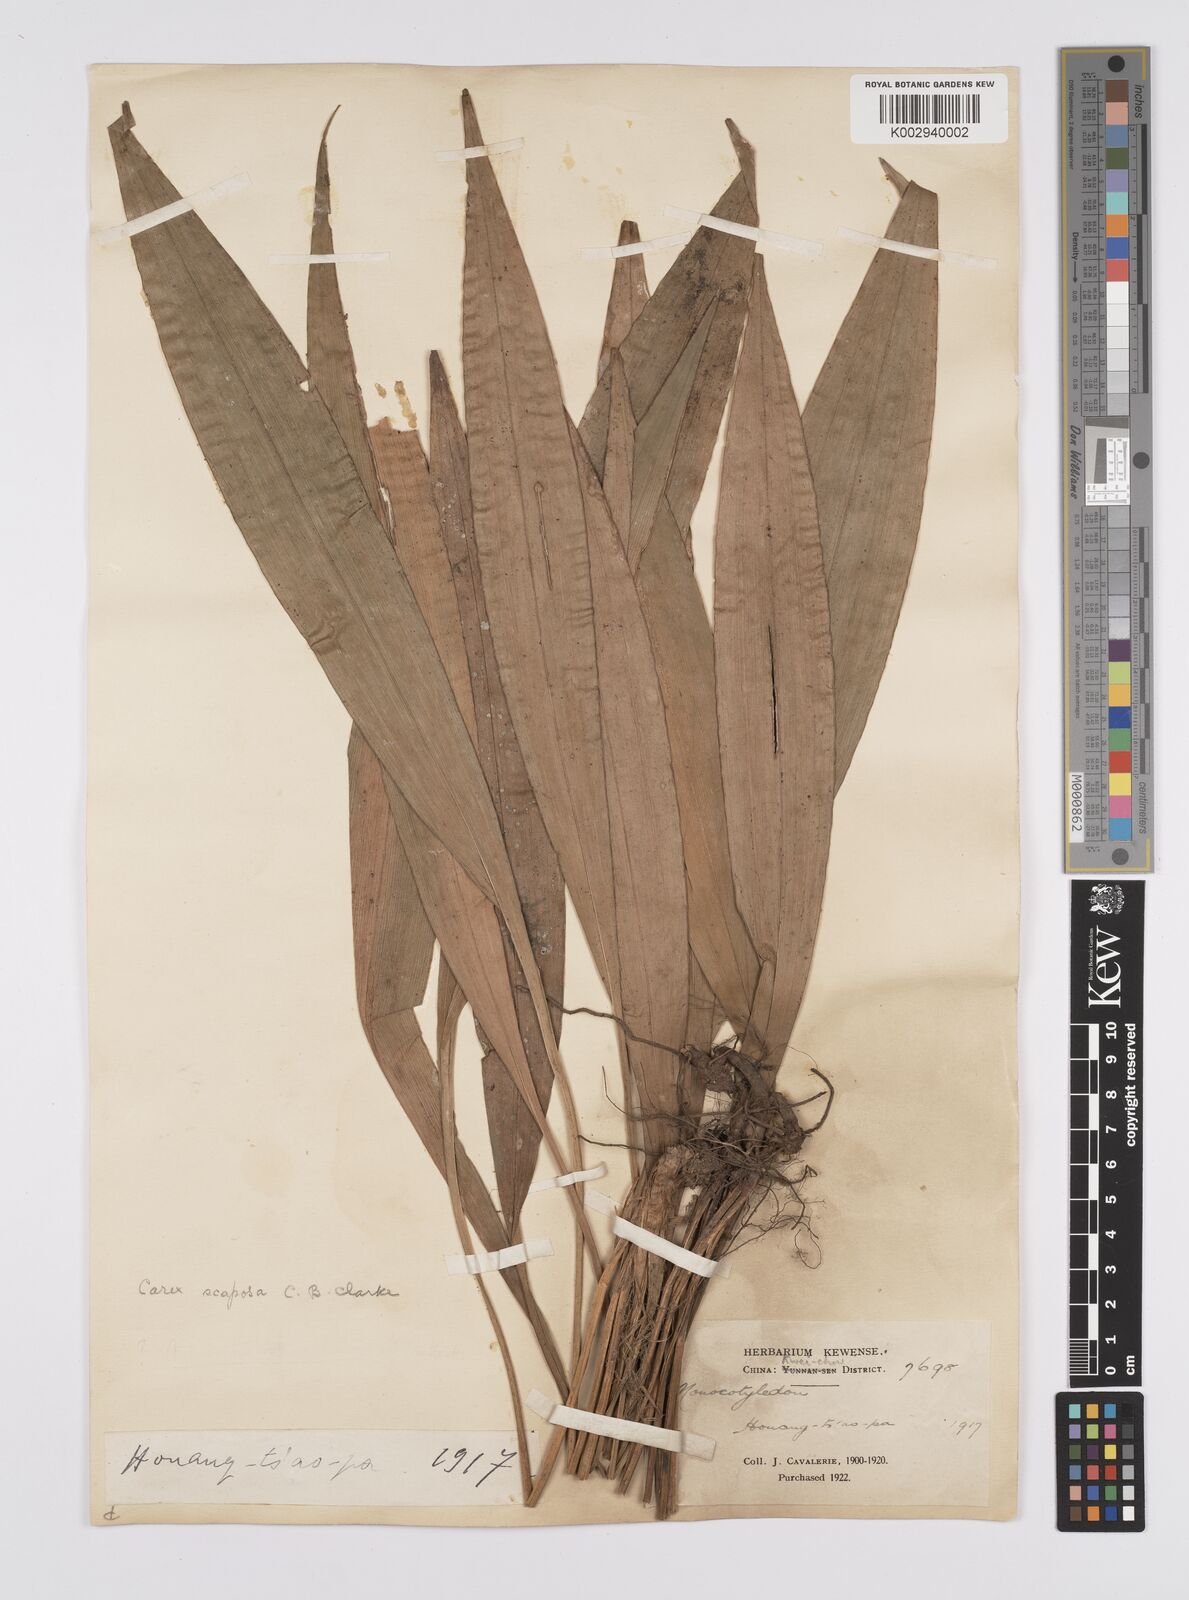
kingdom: Plantae
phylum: Tracheophyta
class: Liliopsida
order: Poales
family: Cyperaceae
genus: Carex
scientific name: Carex scaposa
